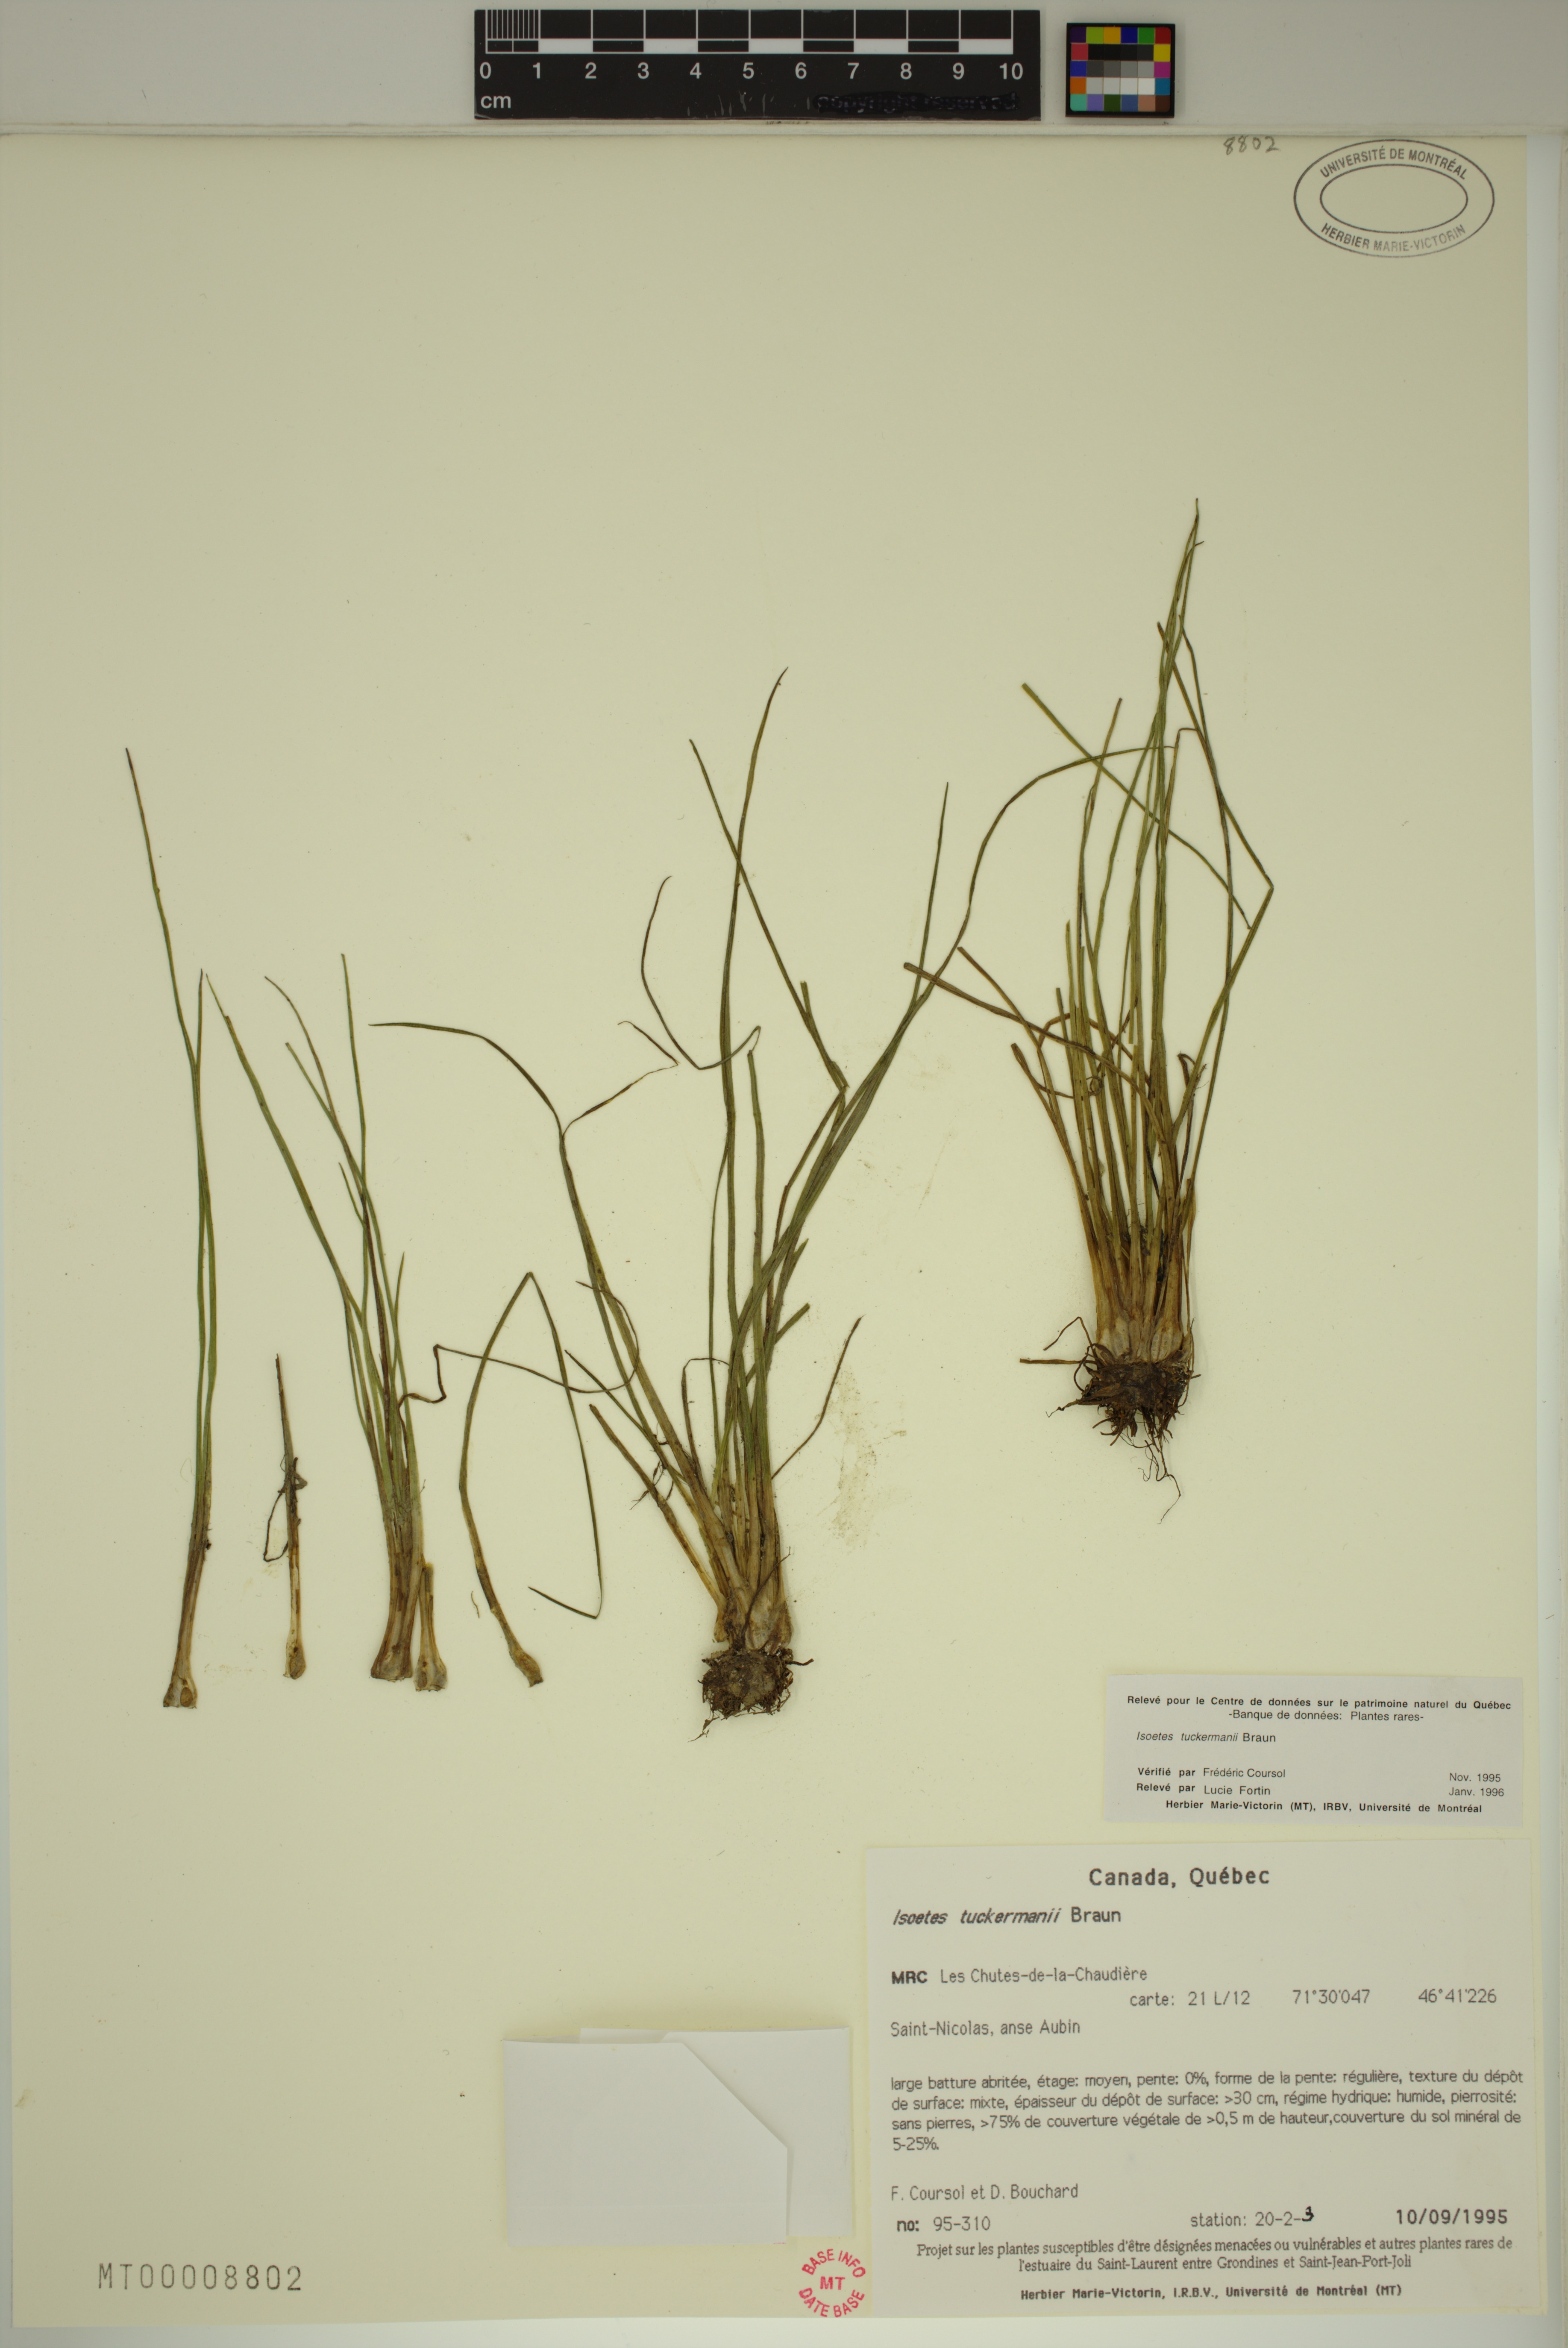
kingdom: Plantae
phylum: Tracheophyta
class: Lycopodiopsida
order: Isoetales
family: Isoetaceae
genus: Isoetes
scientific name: Isoetes echinospora
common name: Spring quillwort
